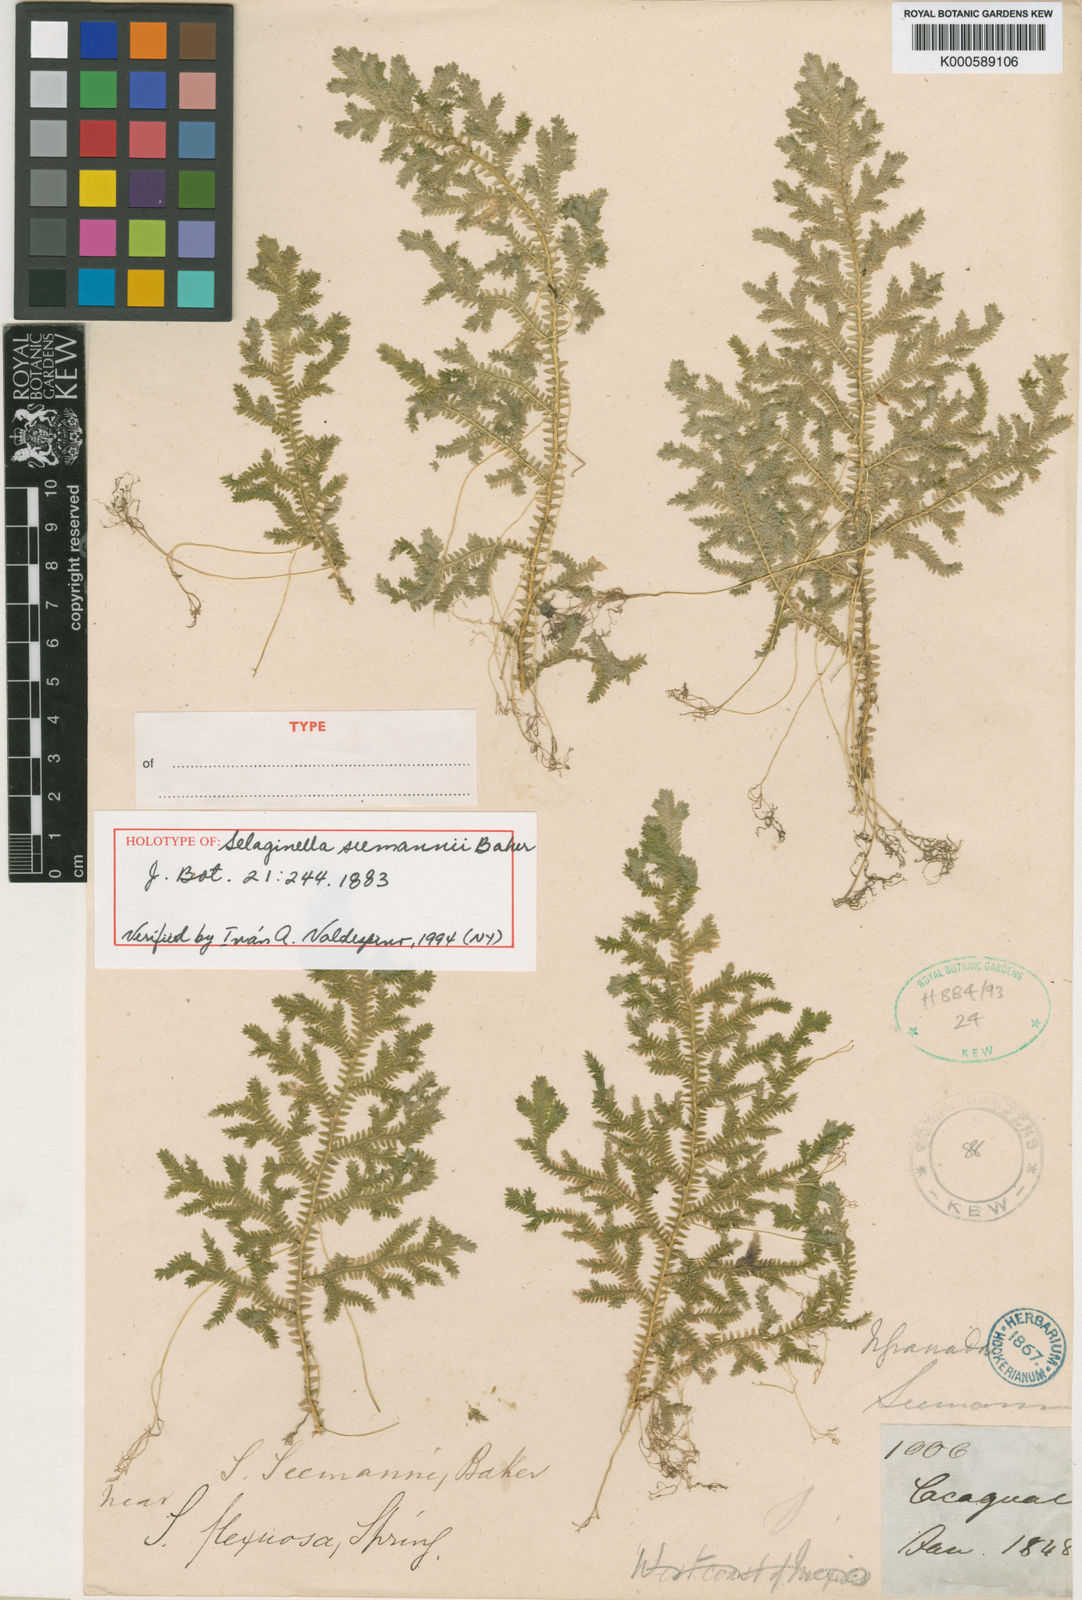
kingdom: Plantae
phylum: Tracheophyta
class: Lycopodiopsida
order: Selaginellales
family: Selaginellaceae
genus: Selaginella
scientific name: Selaginella seemannii
